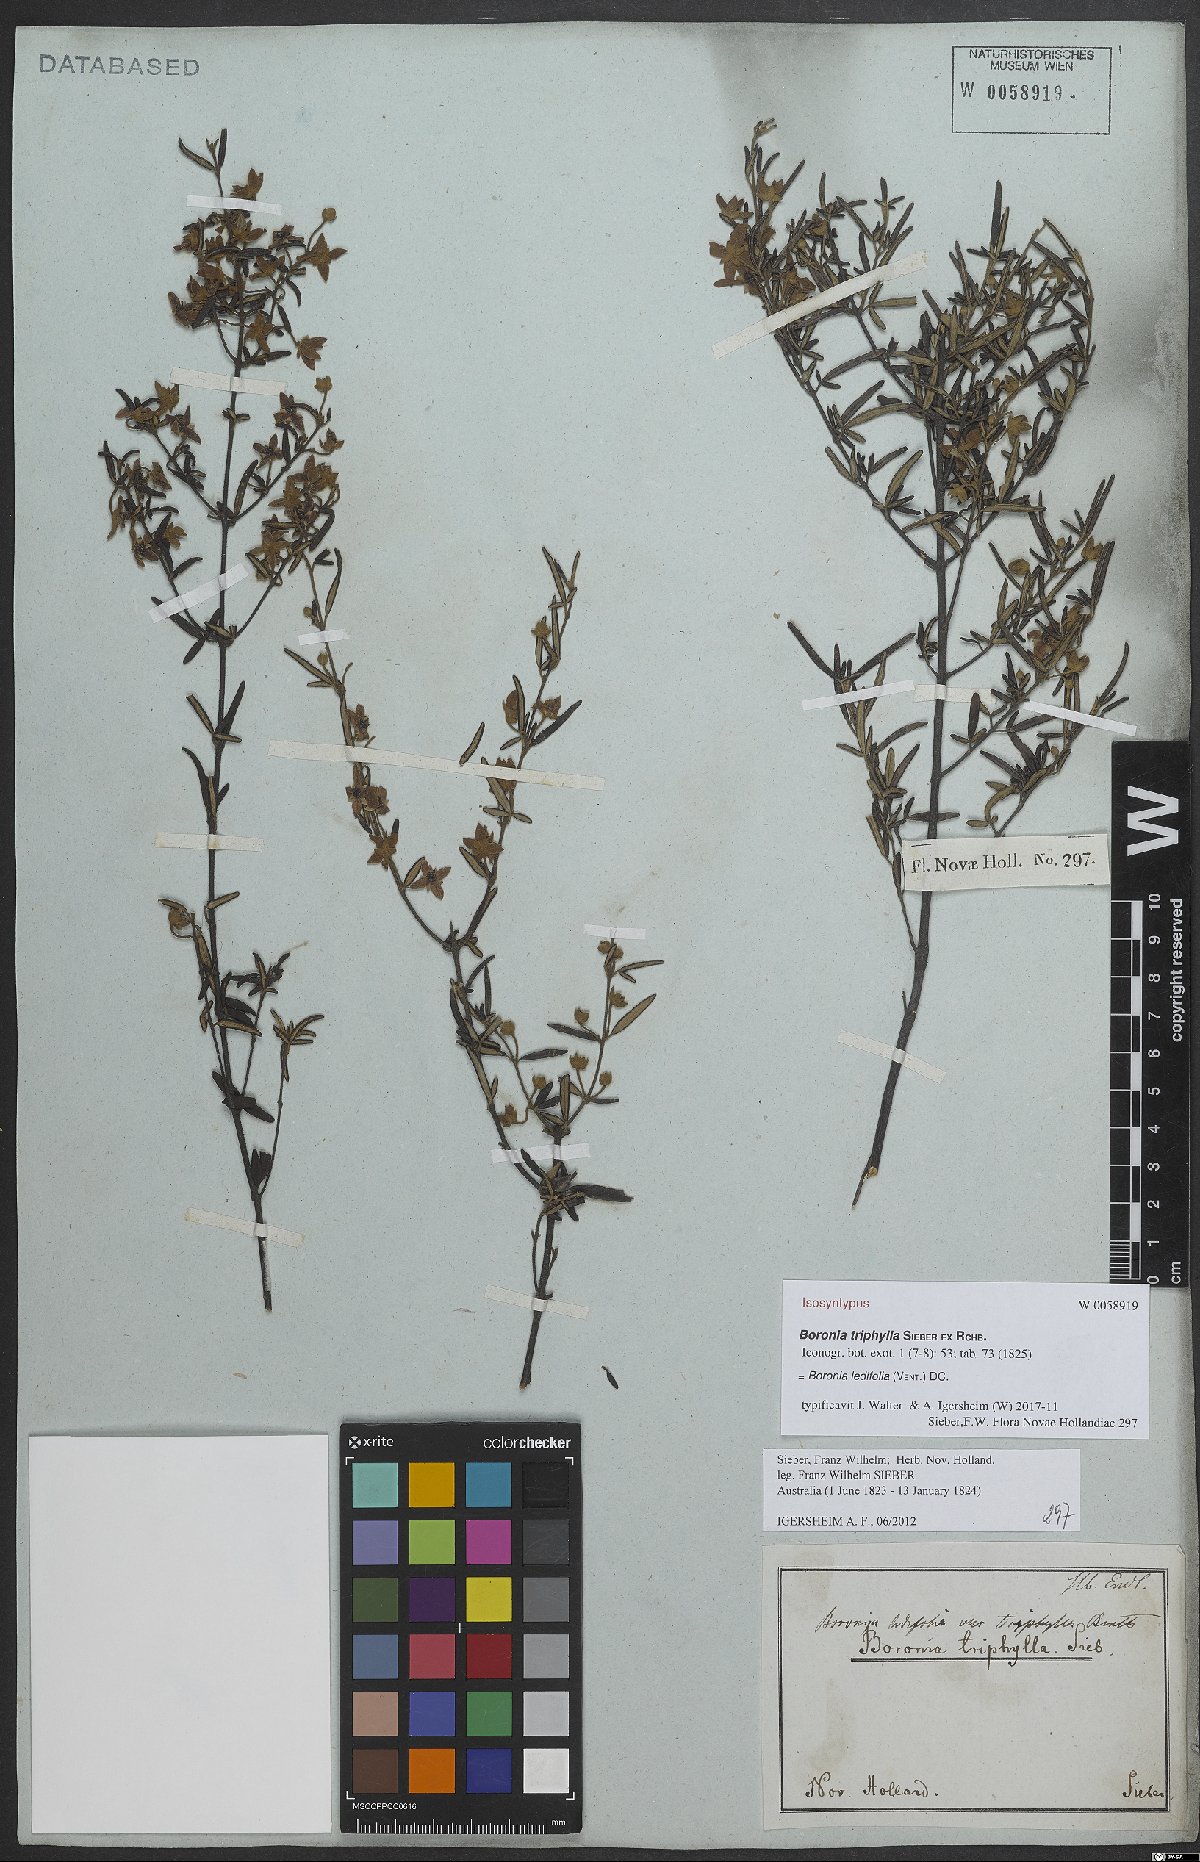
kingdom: Plantae
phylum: Tracheophyta
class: Magnoliopsida
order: Sapindales
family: Rutaceae
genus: Boronia
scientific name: Boronia ledifolia
